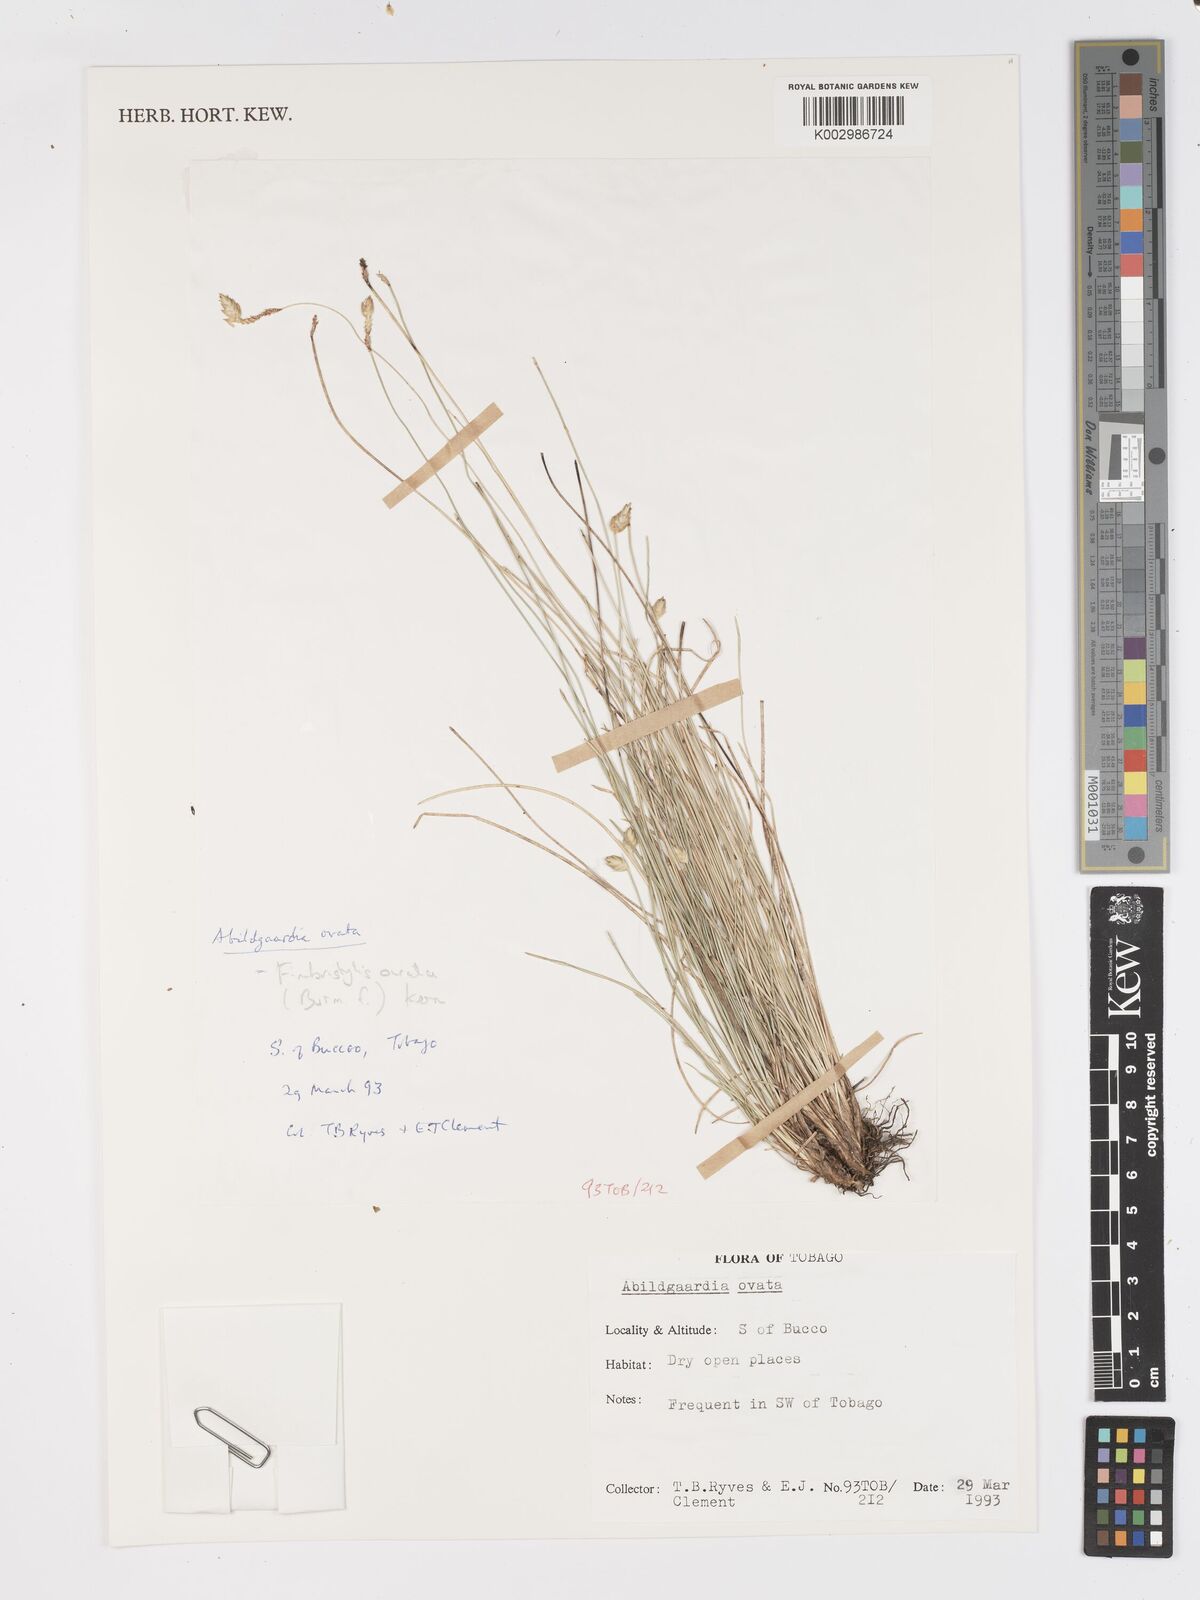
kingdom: Plantae
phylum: Tracheophyta
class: Liliopsida
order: Poales
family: Cyperaceae
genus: Fimbristylis
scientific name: Fimbristylis
